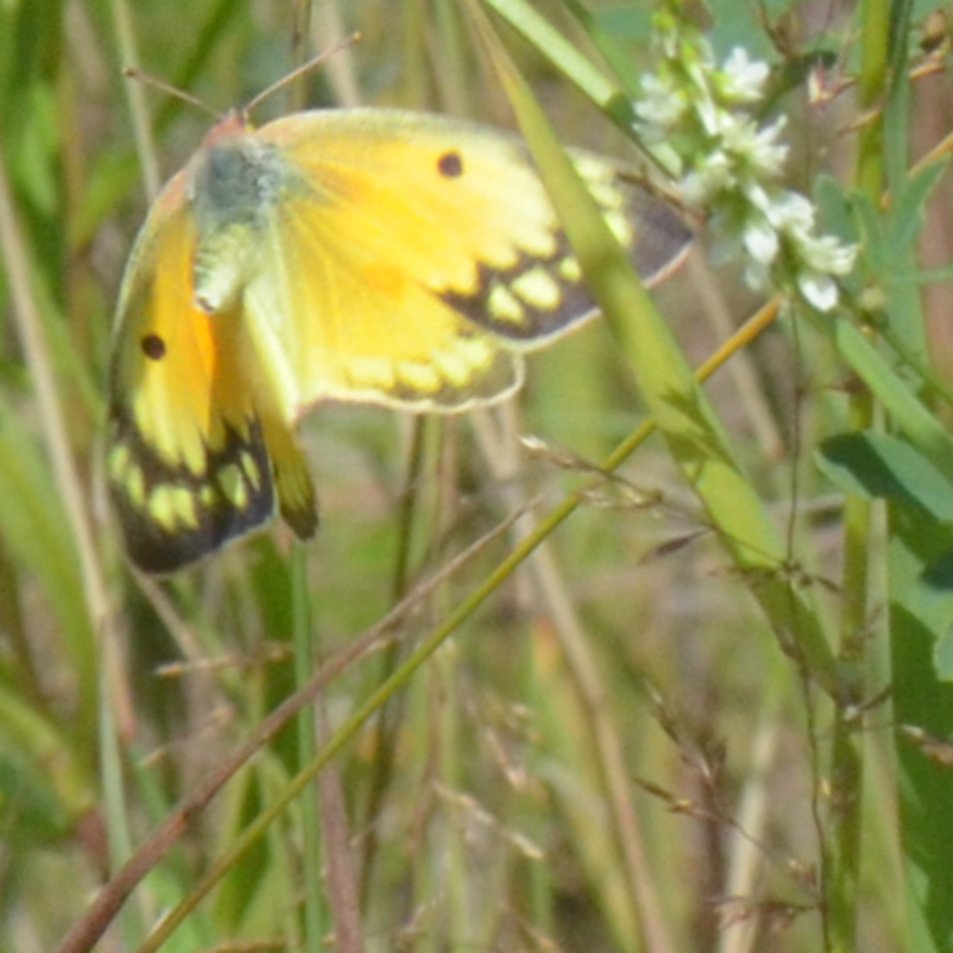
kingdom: Animalia
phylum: Arthropoda
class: Insecta
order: Lepidoptera
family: Pieridae
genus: Colias
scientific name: Colias eurytheme
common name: Orange Sulphur
